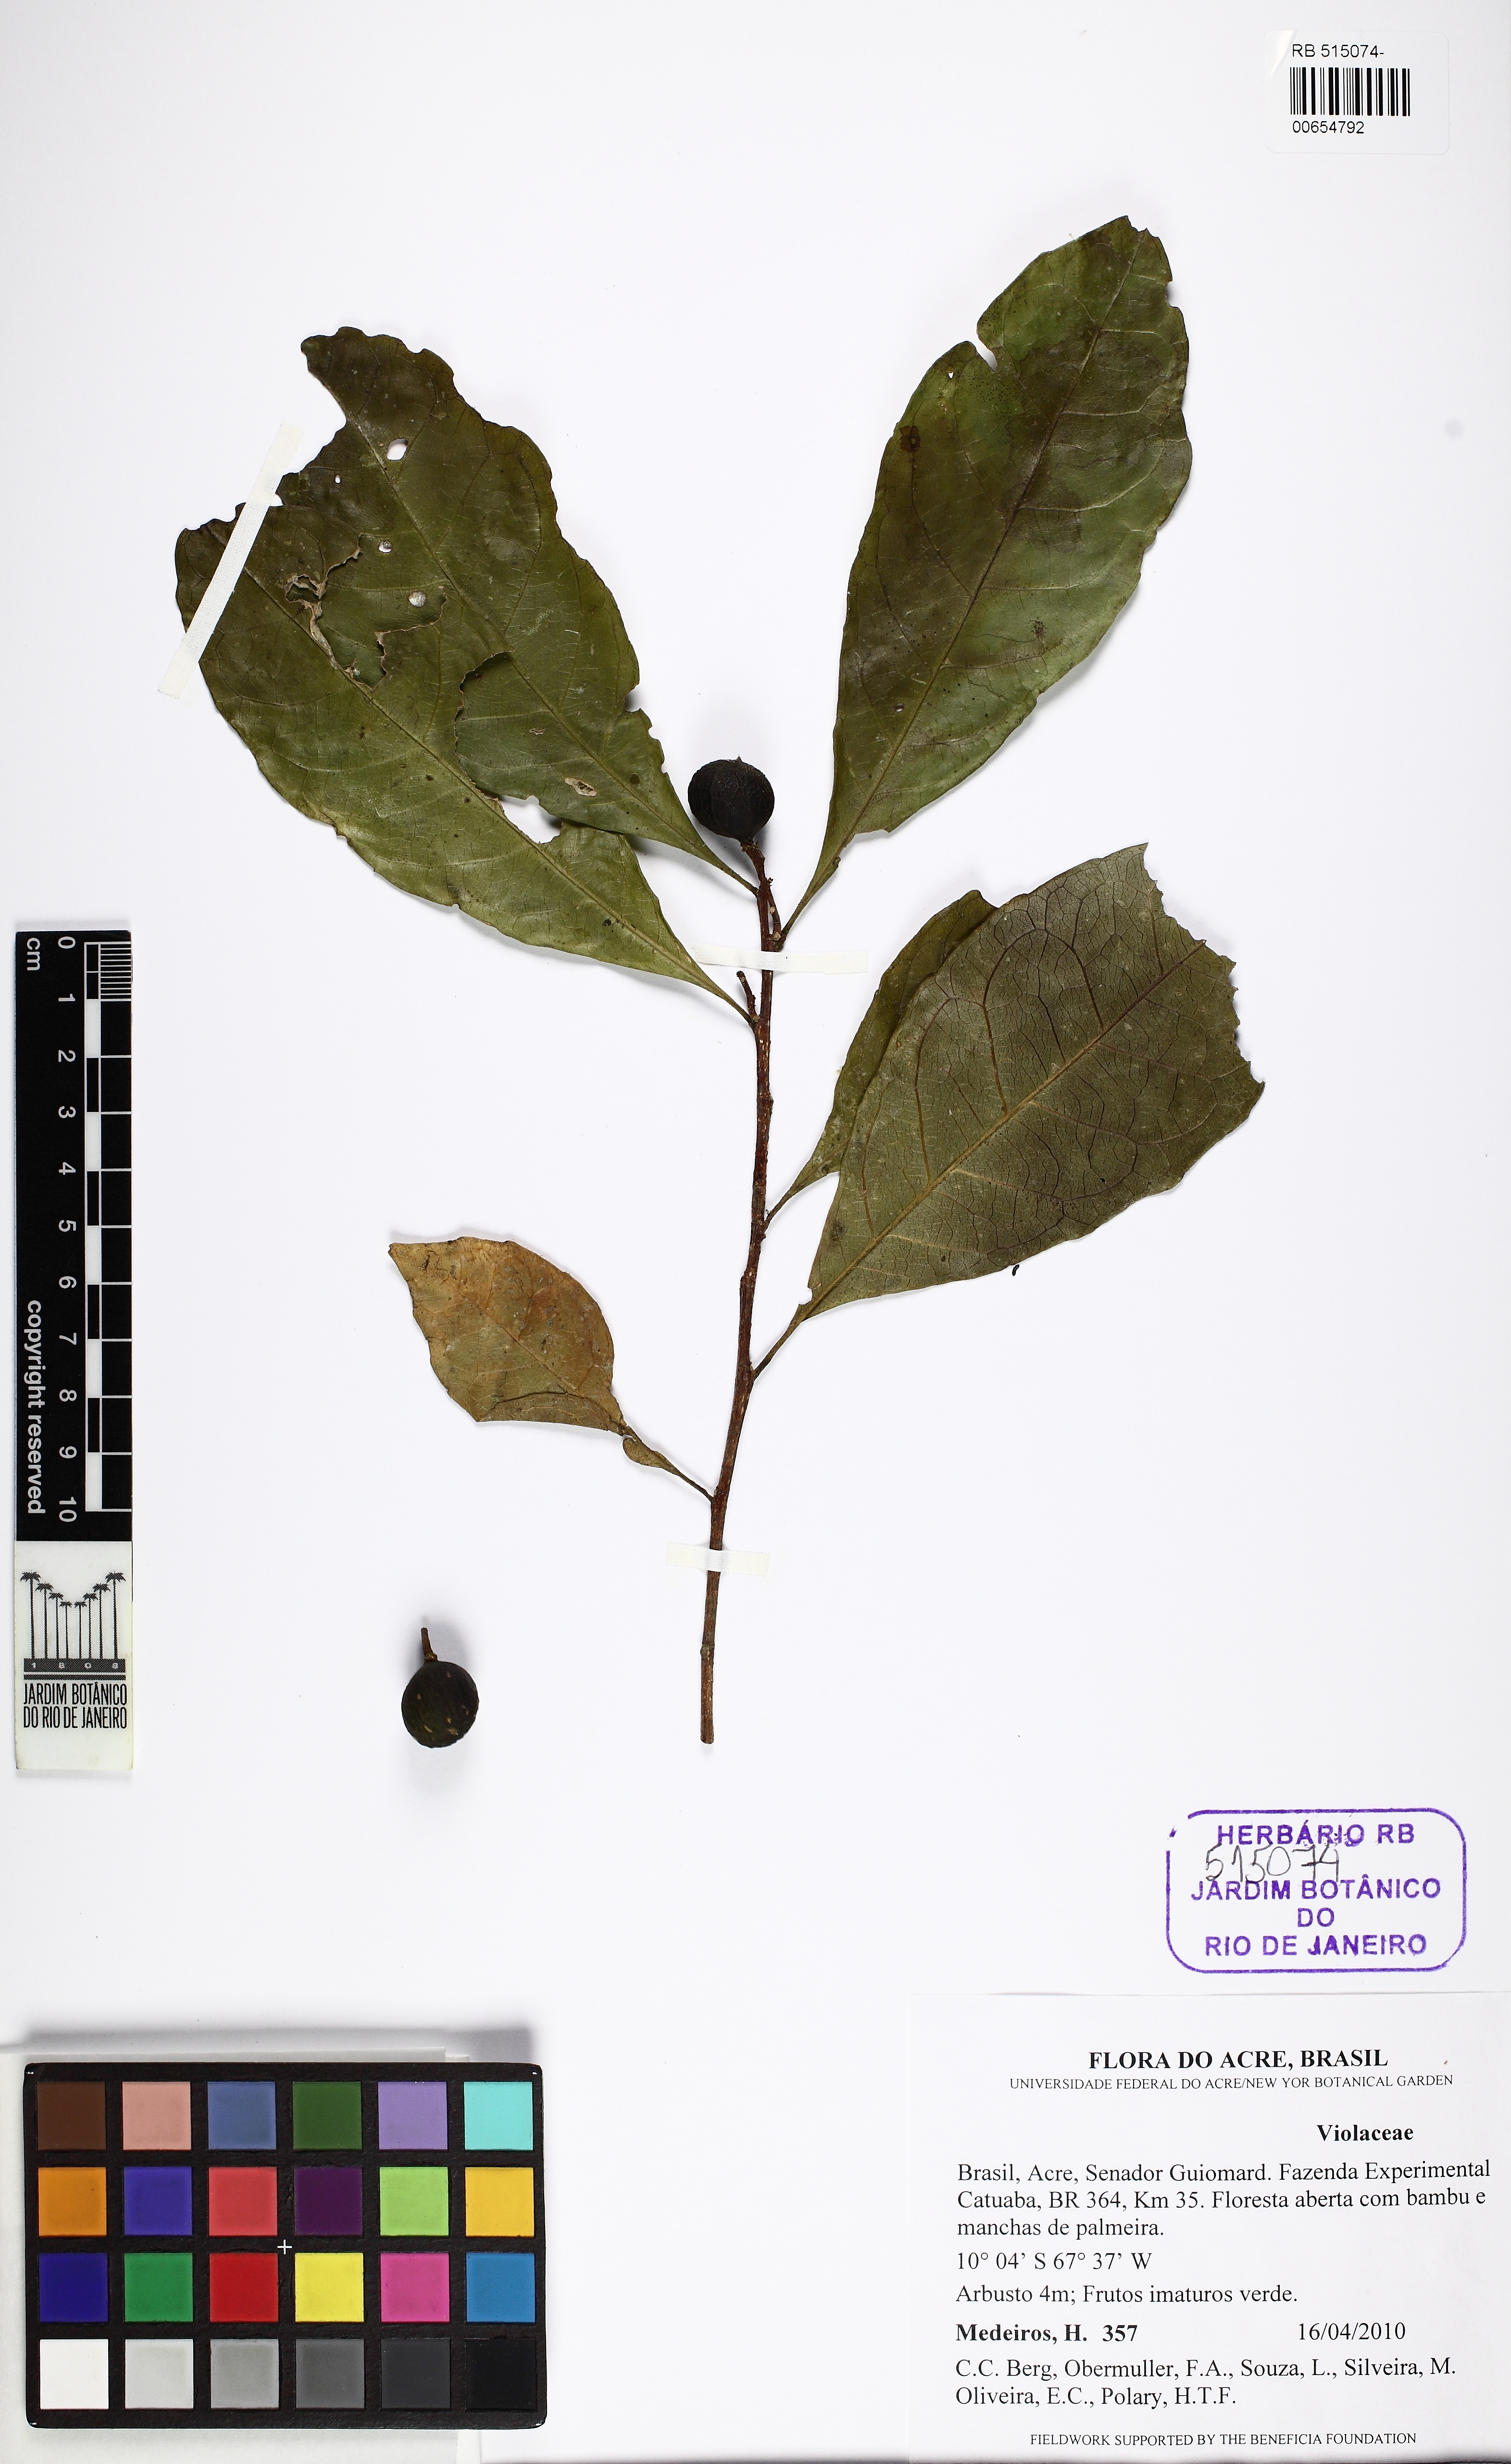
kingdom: Plantae
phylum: Tracheophyta
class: Magnoliopsida
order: Malpighiales
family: Violaceae
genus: Leonia
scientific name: Leonia
